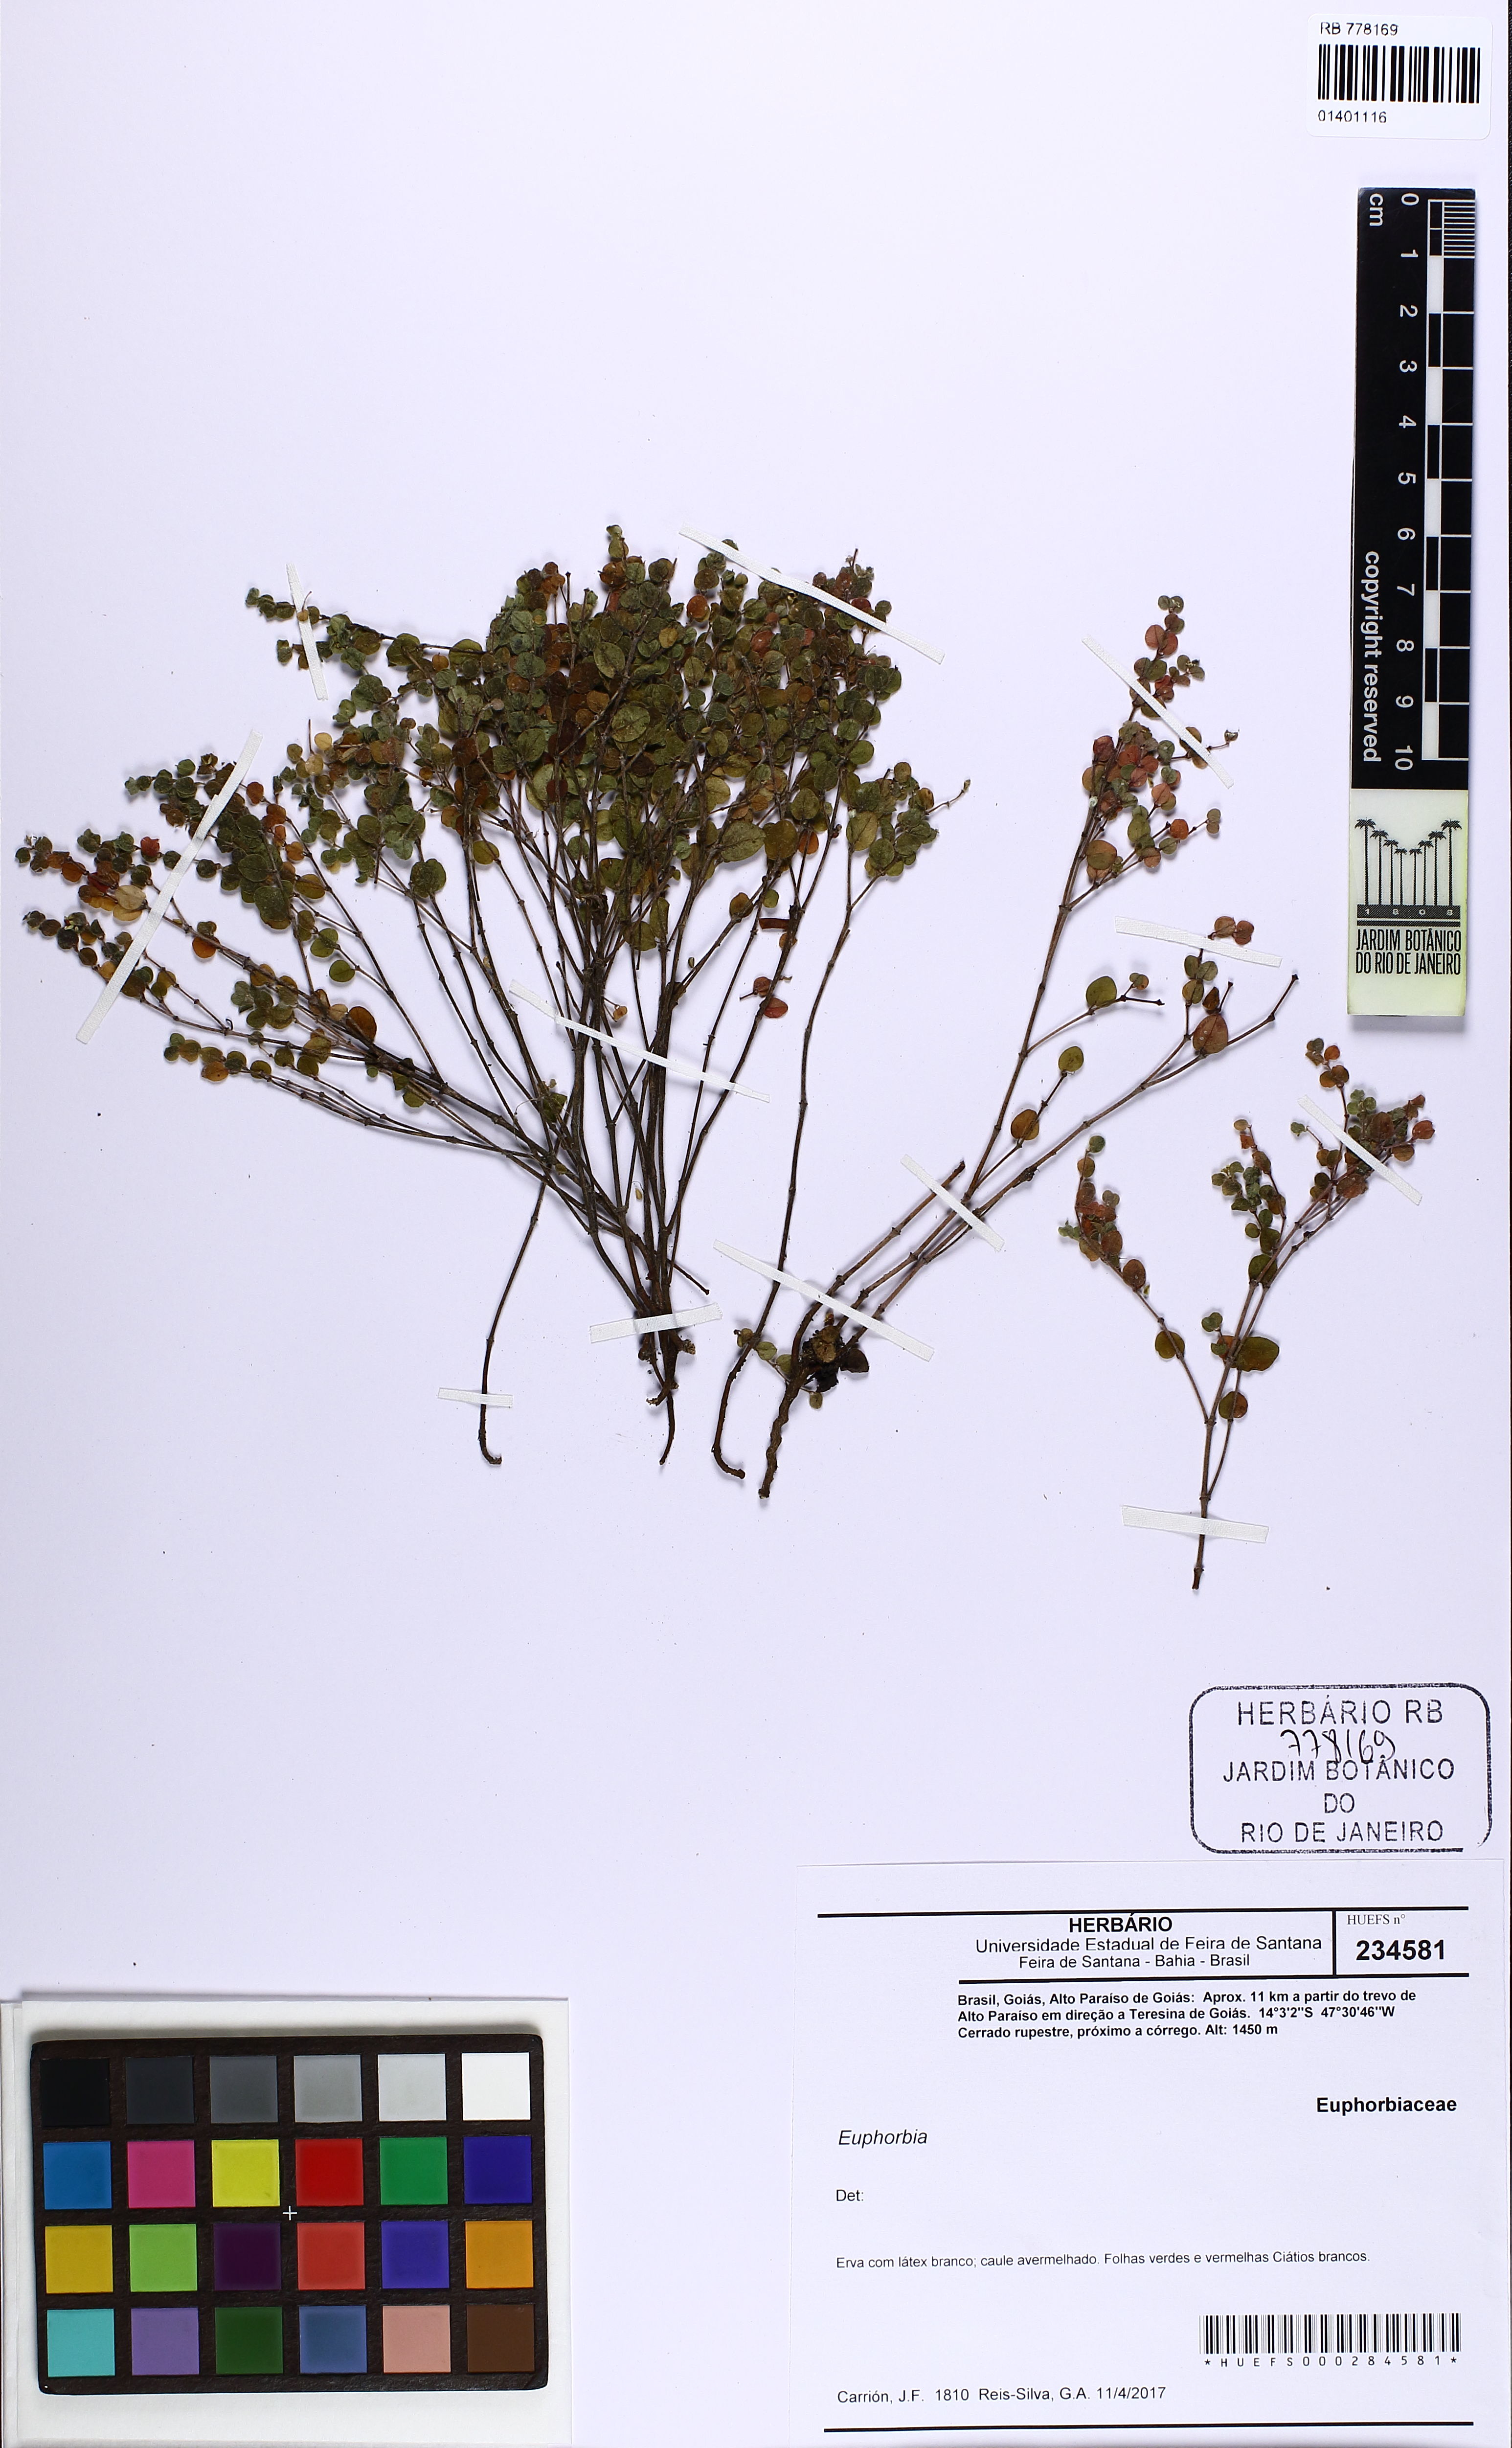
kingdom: Plantae
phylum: Tracheophyta
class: Magnoliopsida
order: Malpighiales
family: Euphorbiaceae
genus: Euphorbia
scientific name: Euphorbia
